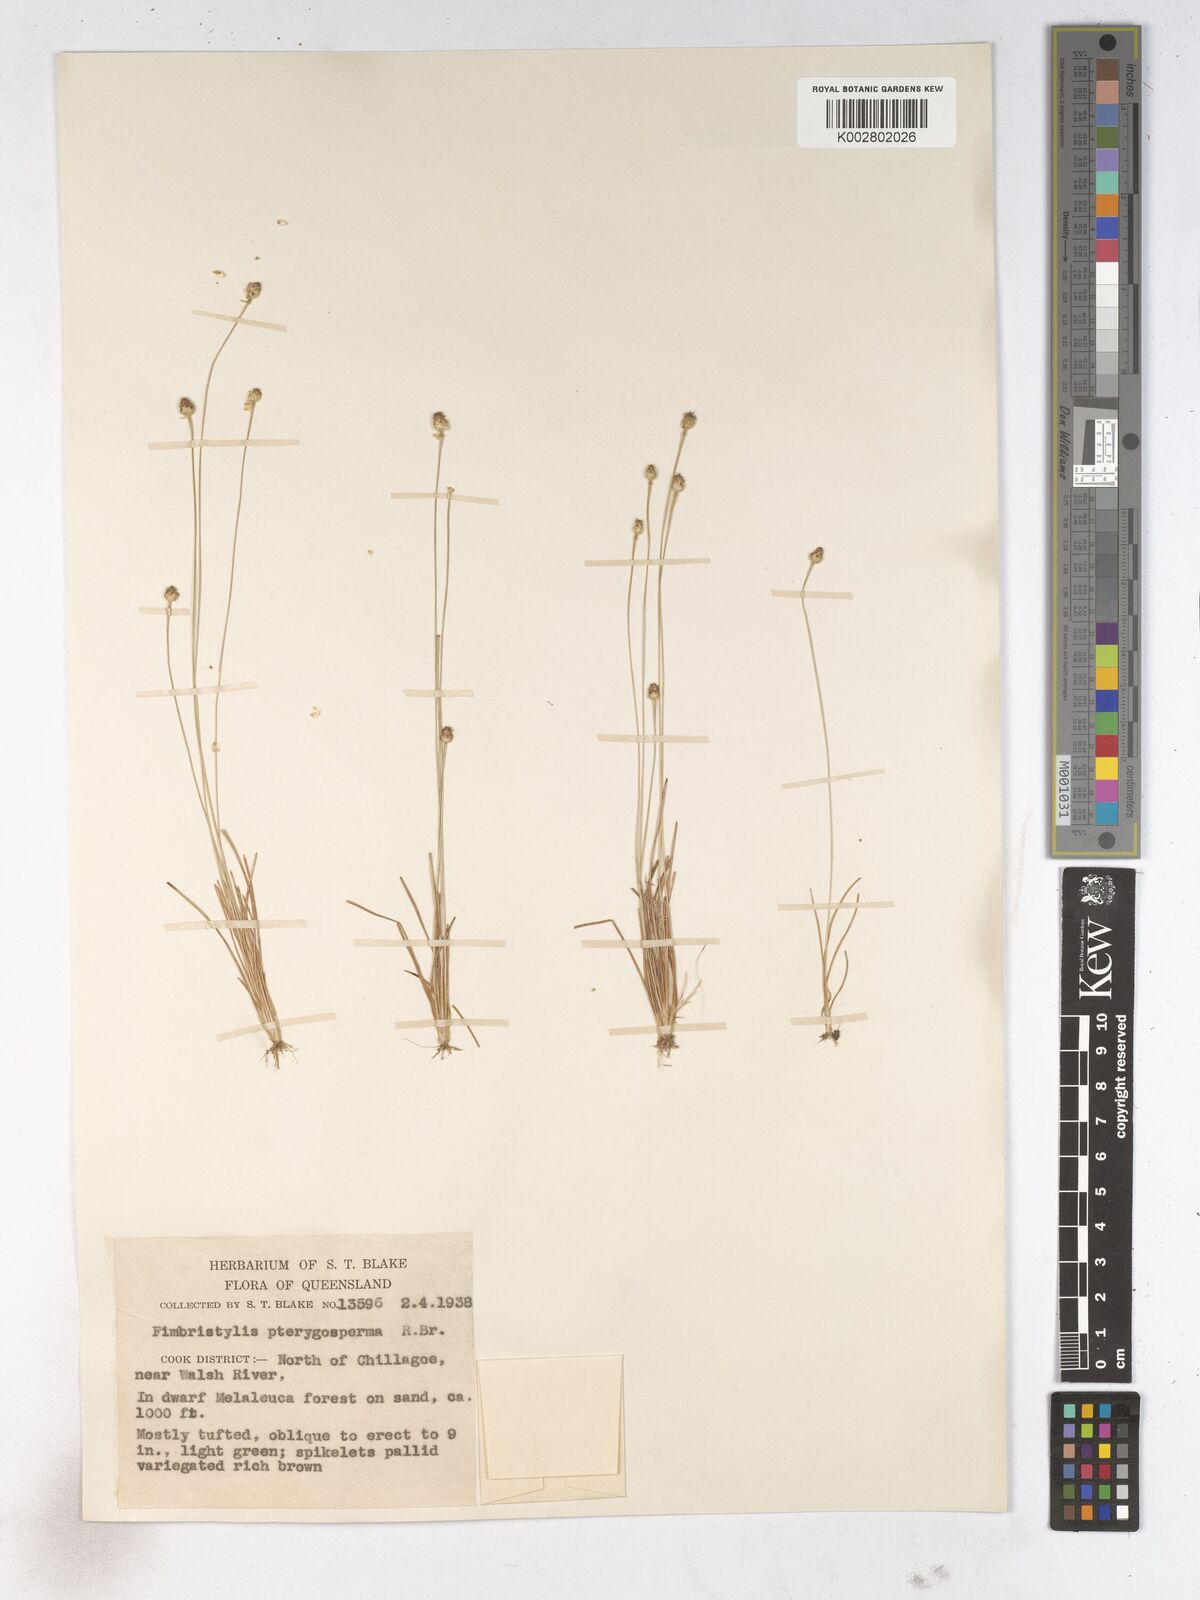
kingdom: Plantae
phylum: Tracheophyta
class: Liliopsida
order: Poales
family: Cyperaceae
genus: Fimbristylis
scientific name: Fimbristylis pterigosperma
